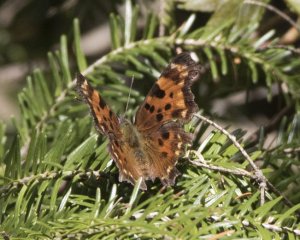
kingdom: Animalia
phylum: Arthropoda
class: Insecta
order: Lepidoptera
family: Nymphalidae
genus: Polygonia
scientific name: Polygonia faunus
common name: Green Comma
